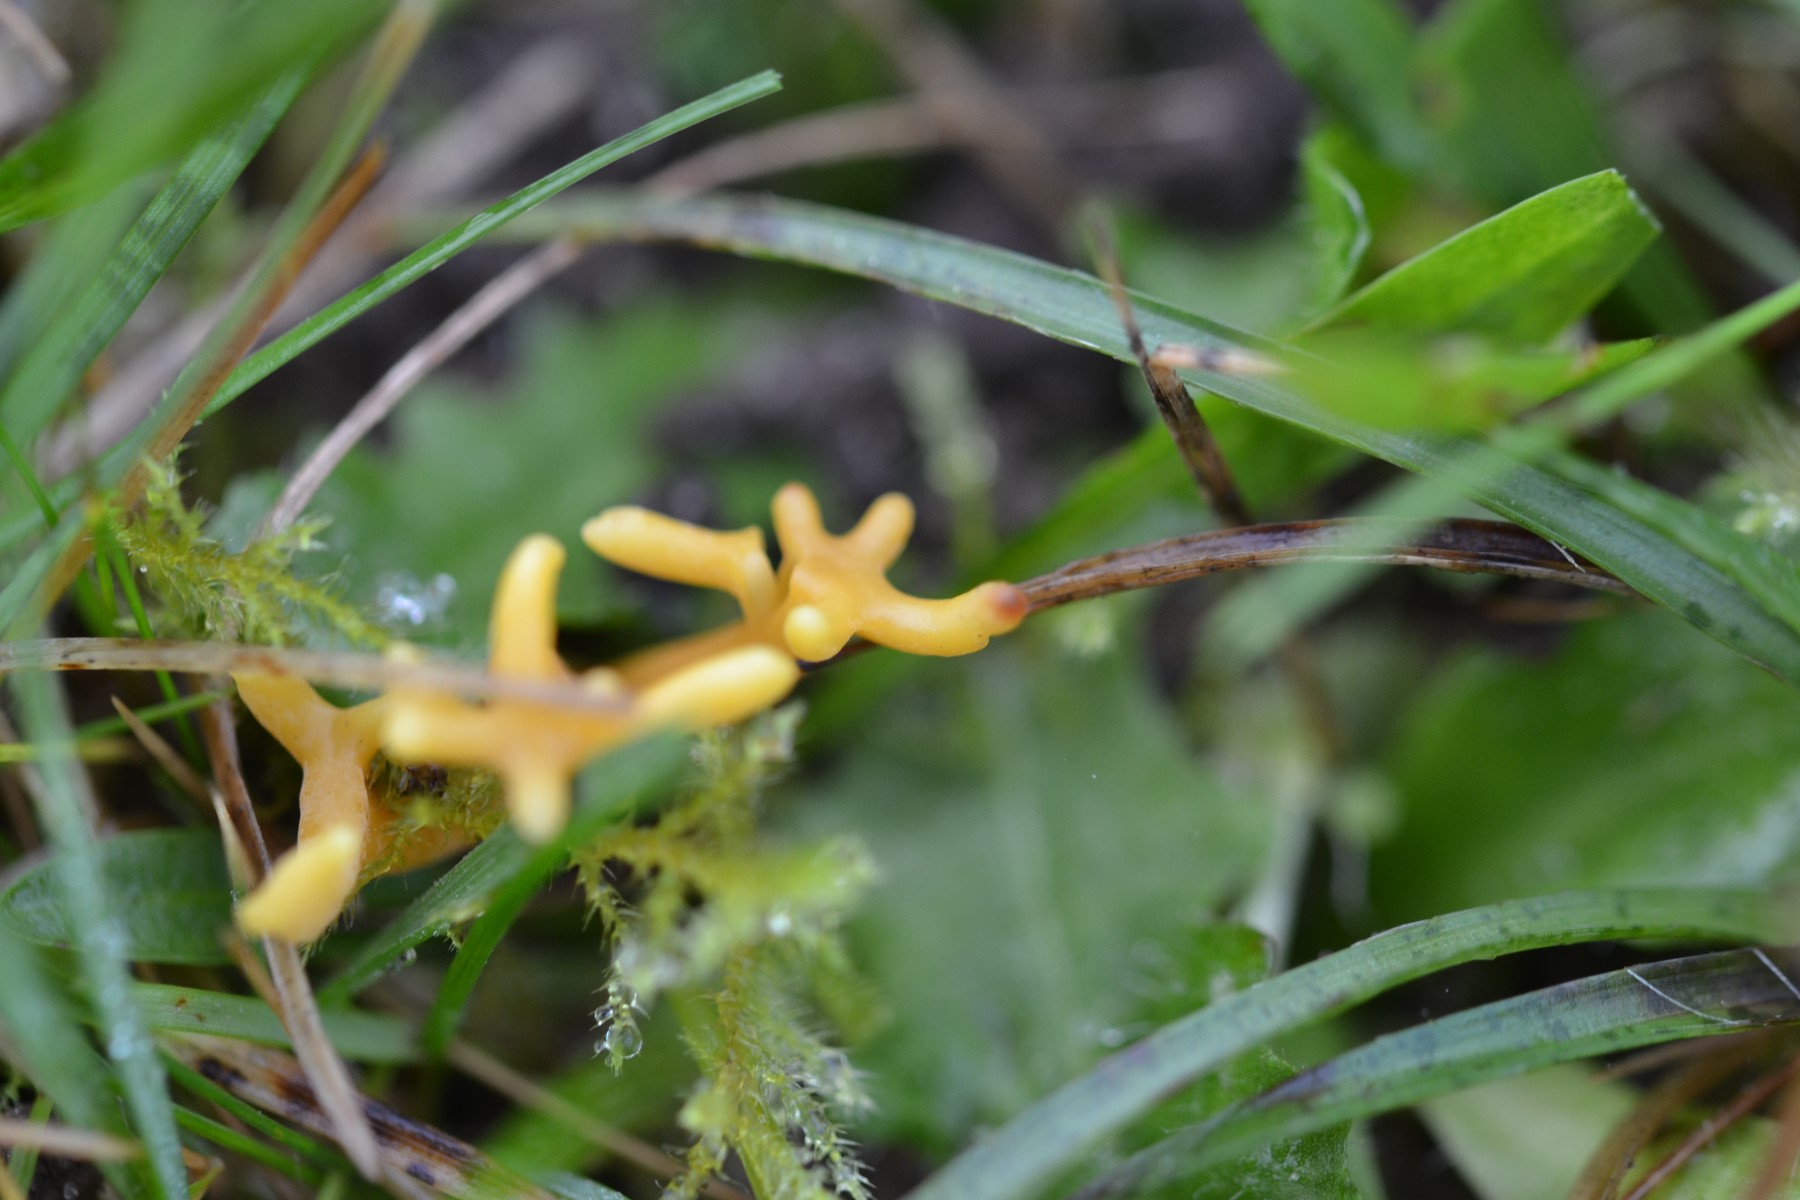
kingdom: Fungi
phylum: Basidiomycota
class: Agaricomycetes
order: Agaricales
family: Clavariaceae
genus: Clavulinopsis
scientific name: Clavulinopsis corniculata
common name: eng-køllesvamp
